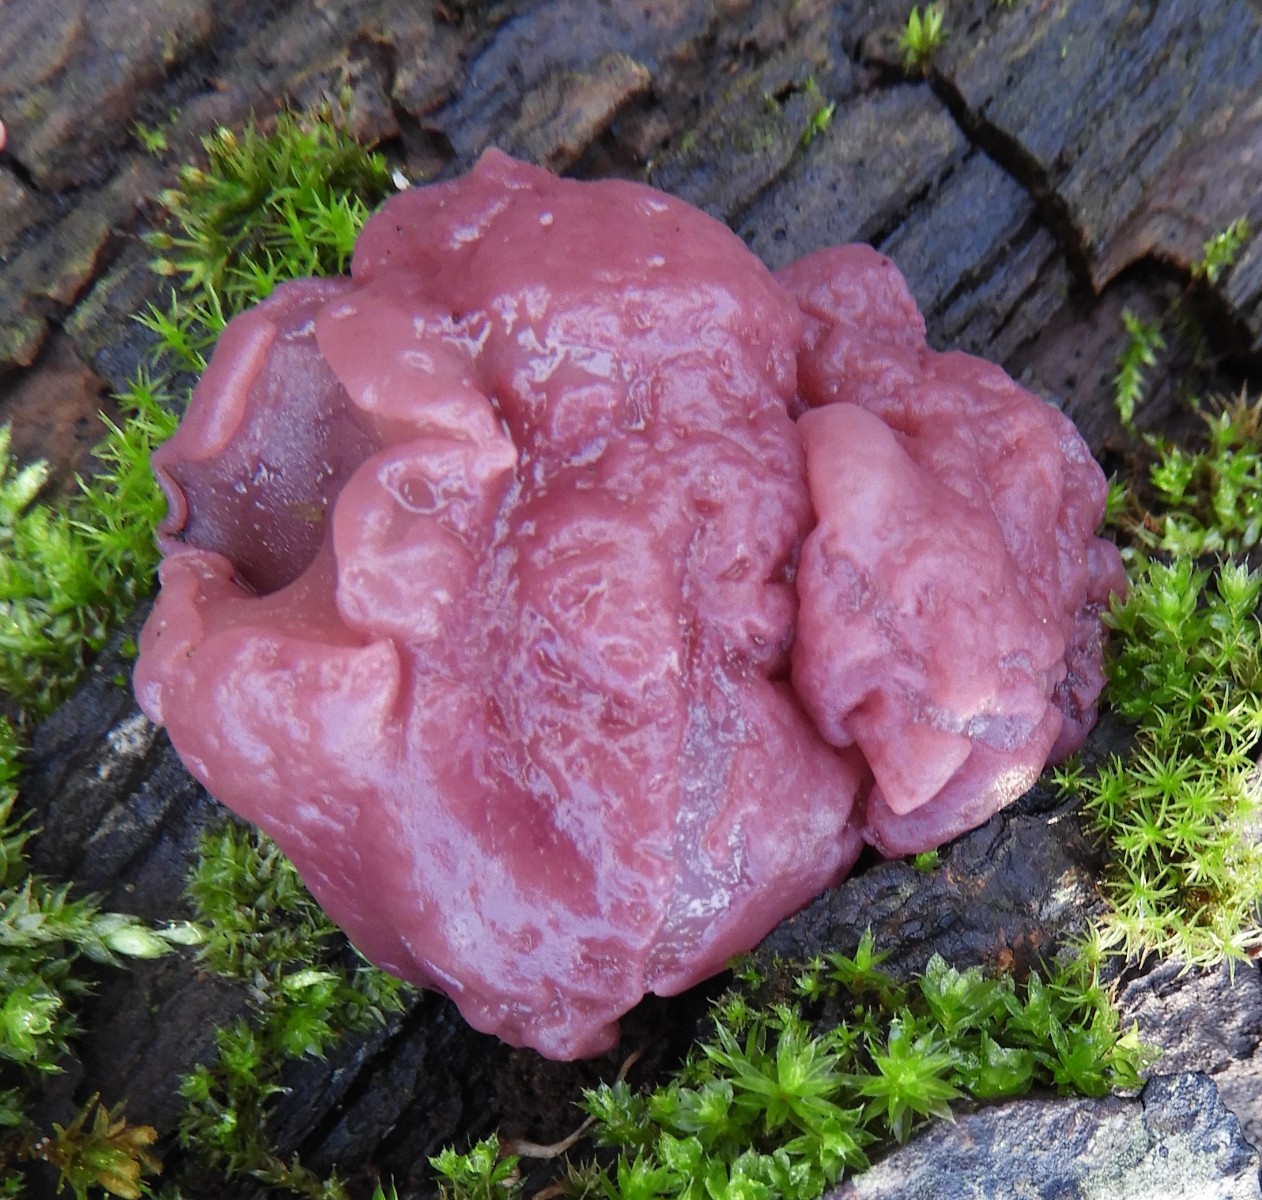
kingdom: Fungi
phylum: Ascomycota
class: Leotiomycetes
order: Helotiales
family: Gelatinodiscaceae
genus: Ascocoryne
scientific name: Ascocoryne cylichnium
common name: stor sejskive
